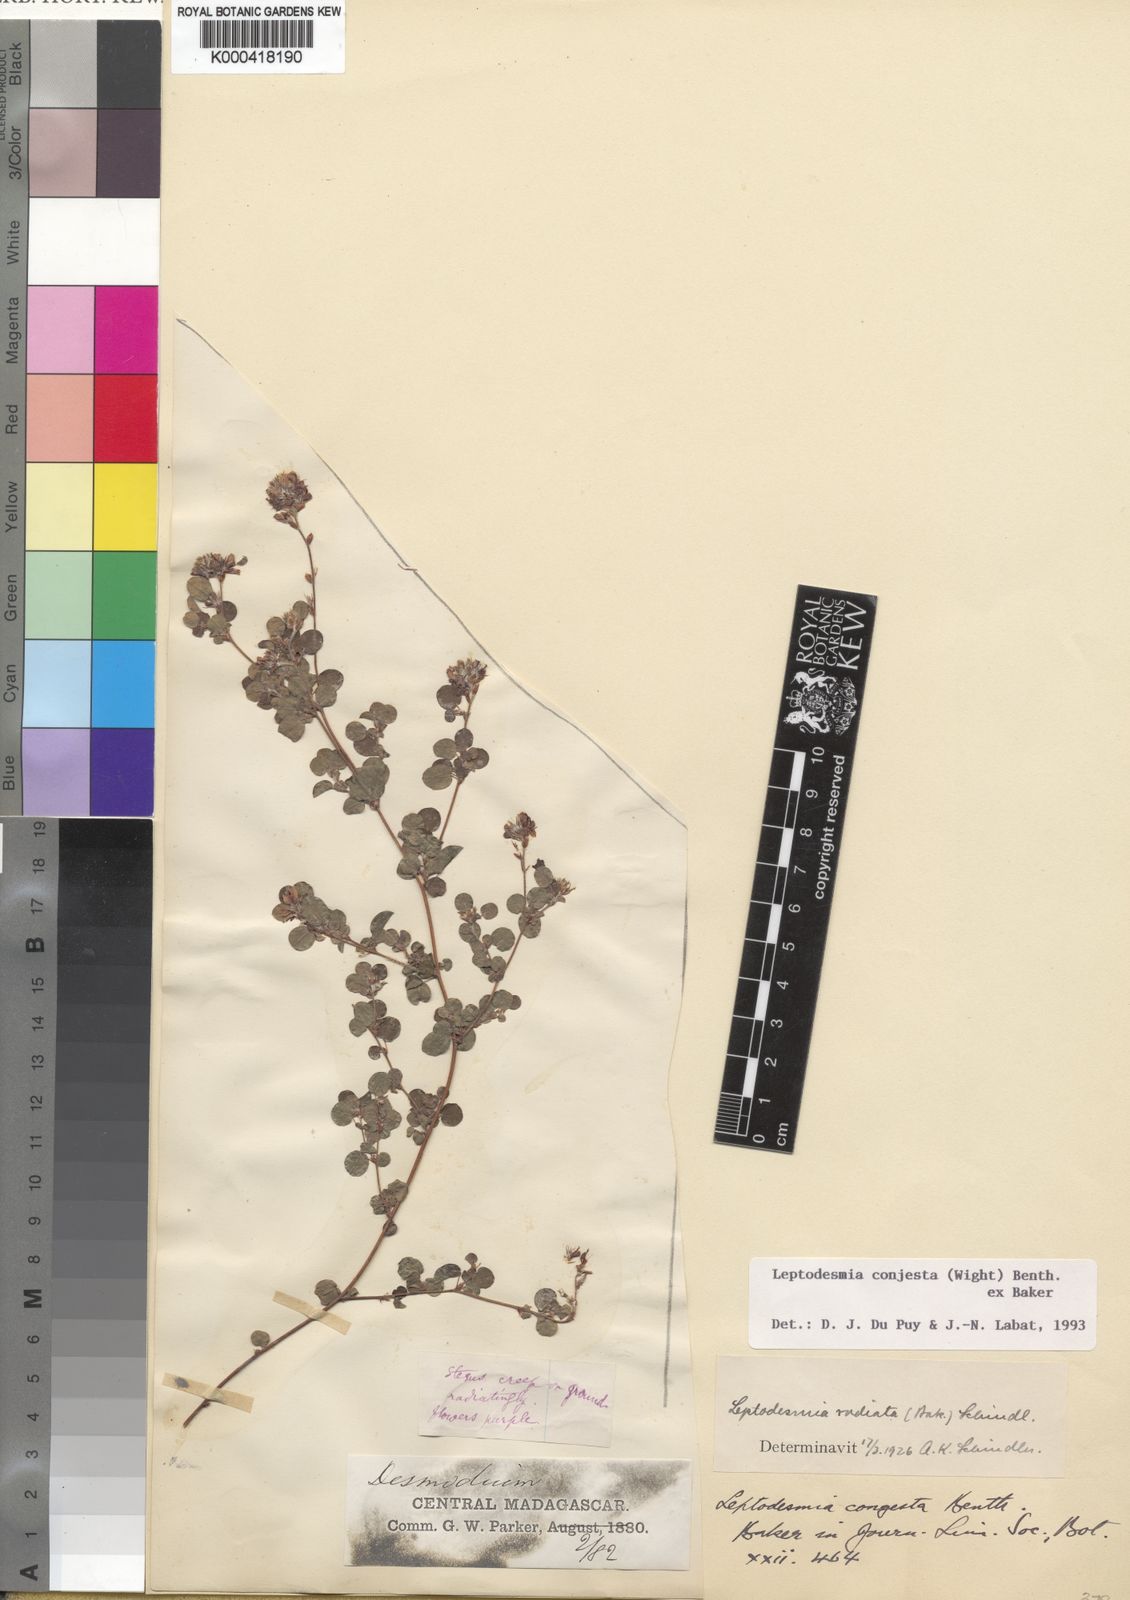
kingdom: Plantae
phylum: Tracheophyta
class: Magnoliopsida
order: Fabales
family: Fabaceae
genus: Leptodesmia
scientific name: Leptodesmia
